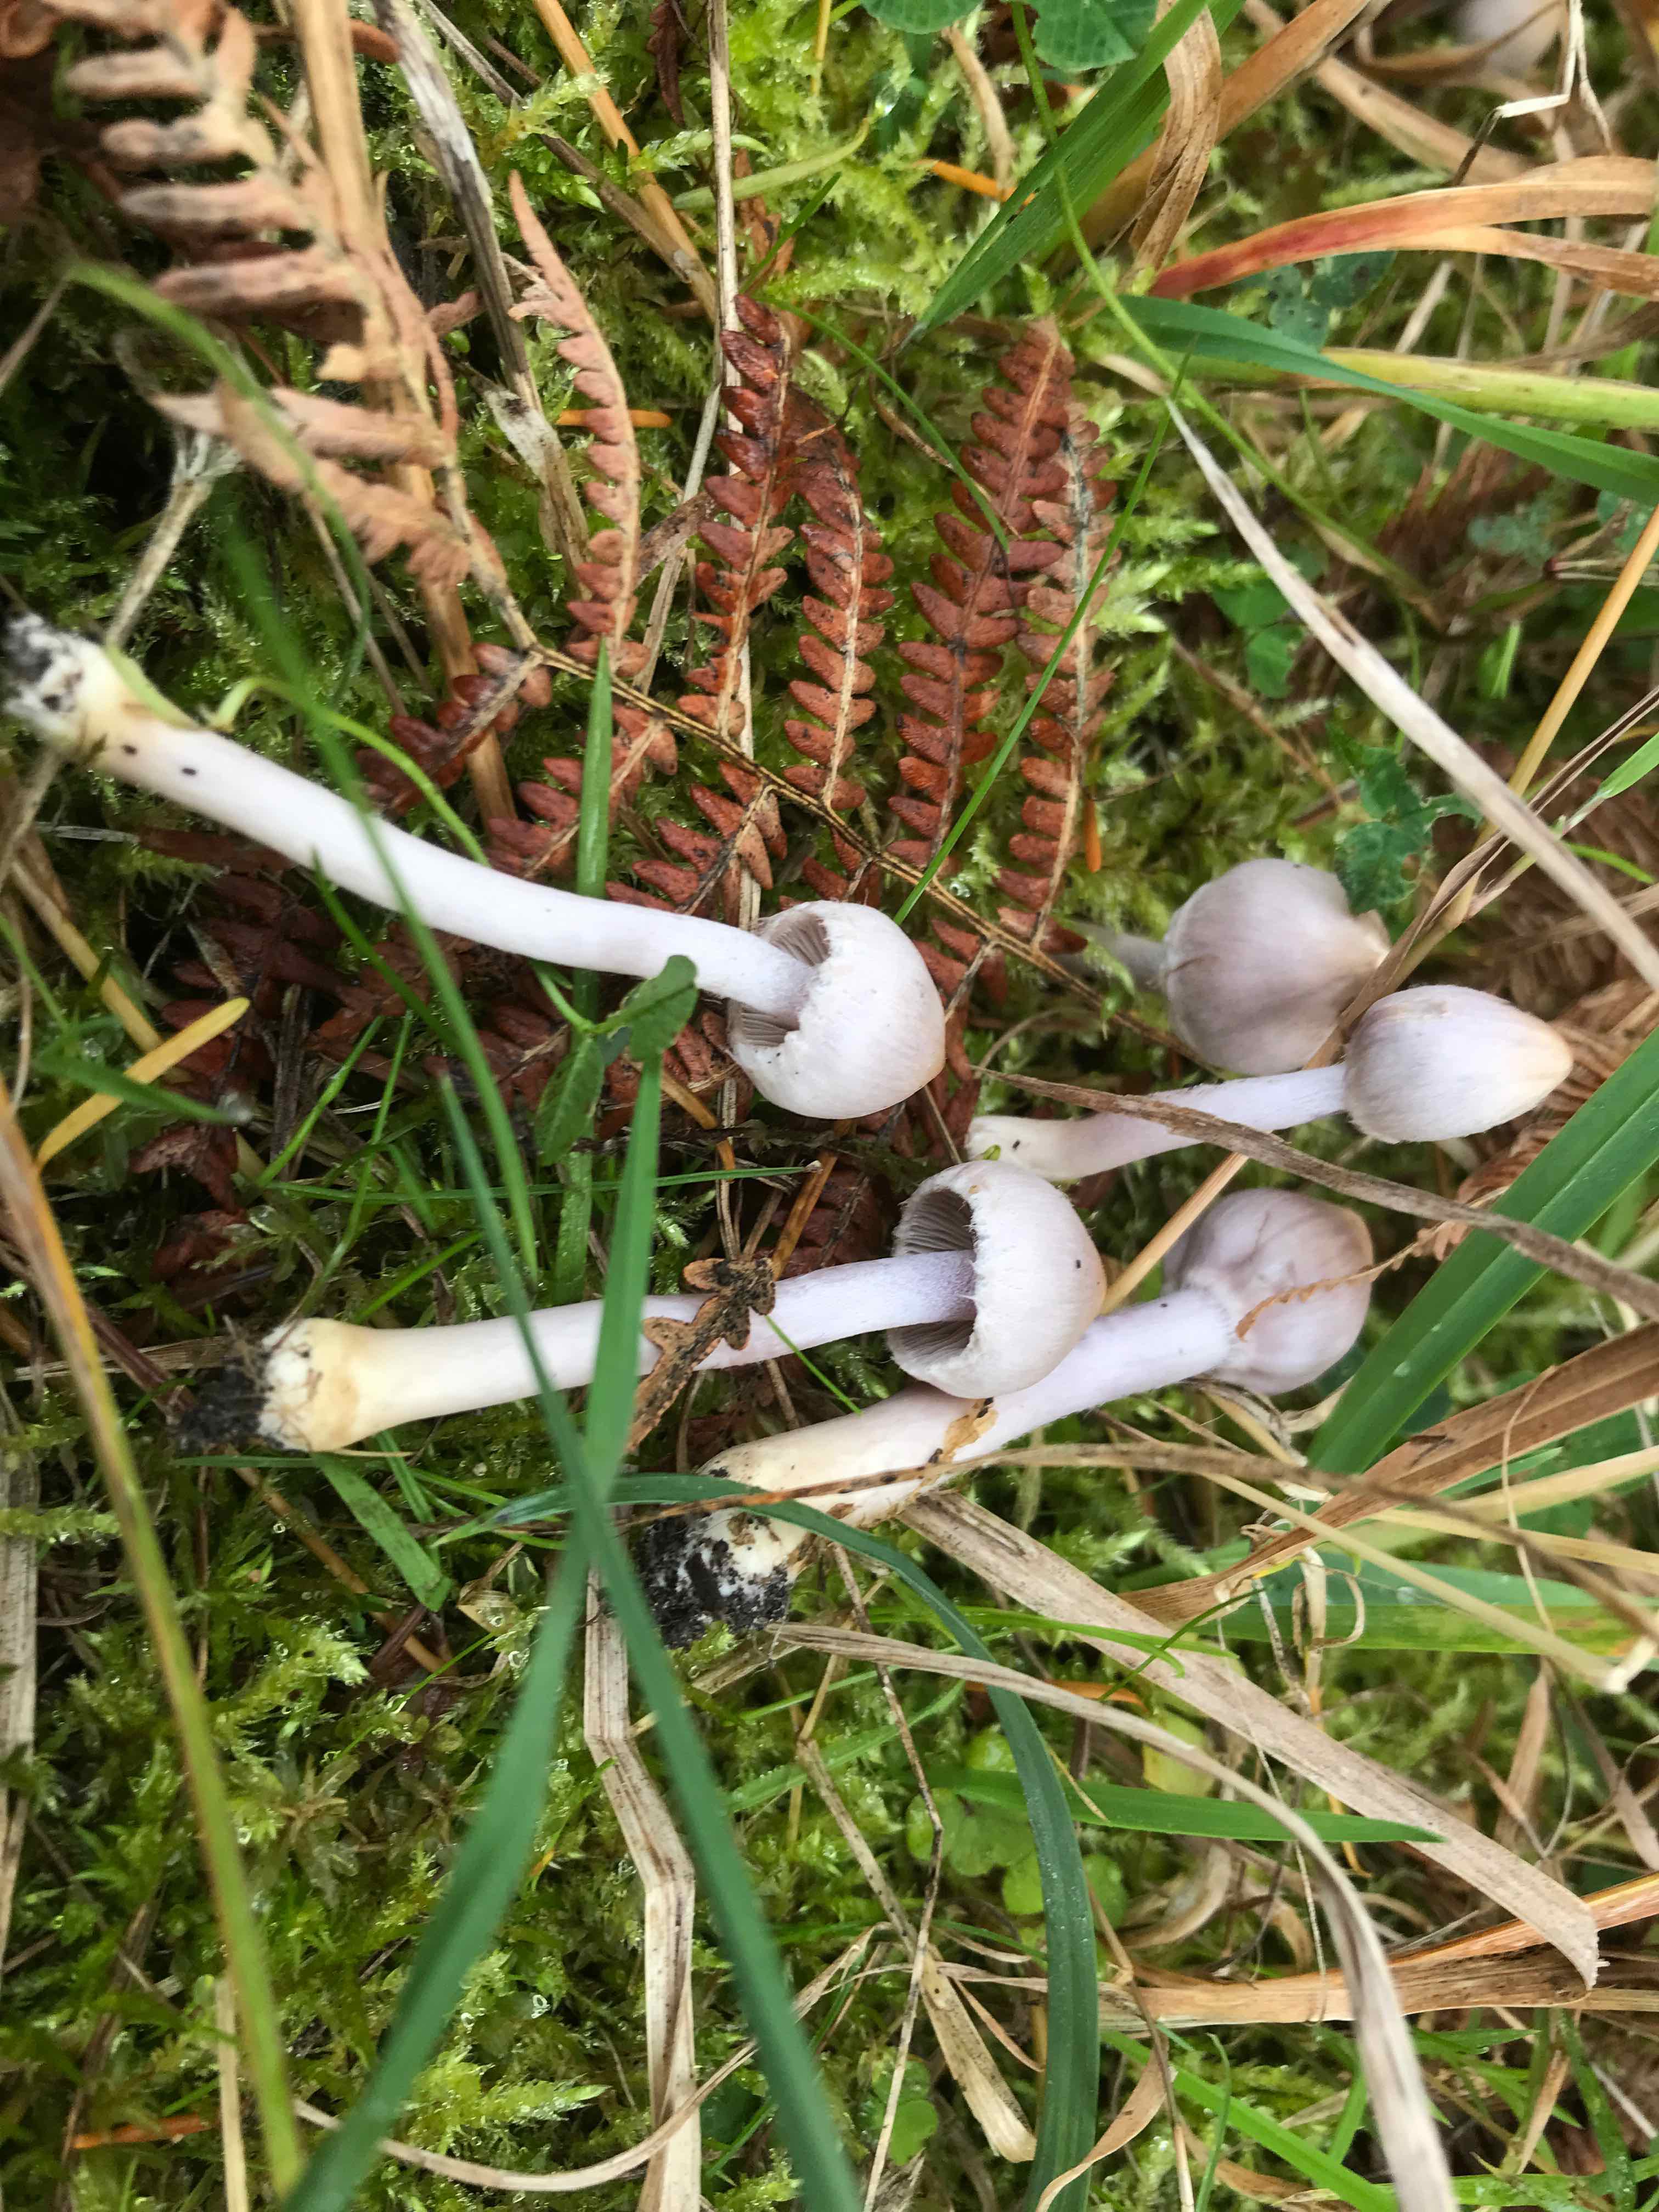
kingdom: Fungi
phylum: Basidiomycota
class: Agaricomycetes
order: Agaricales
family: Inocybaceae
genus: Inocybe
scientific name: Inocybe
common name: trævlhat
